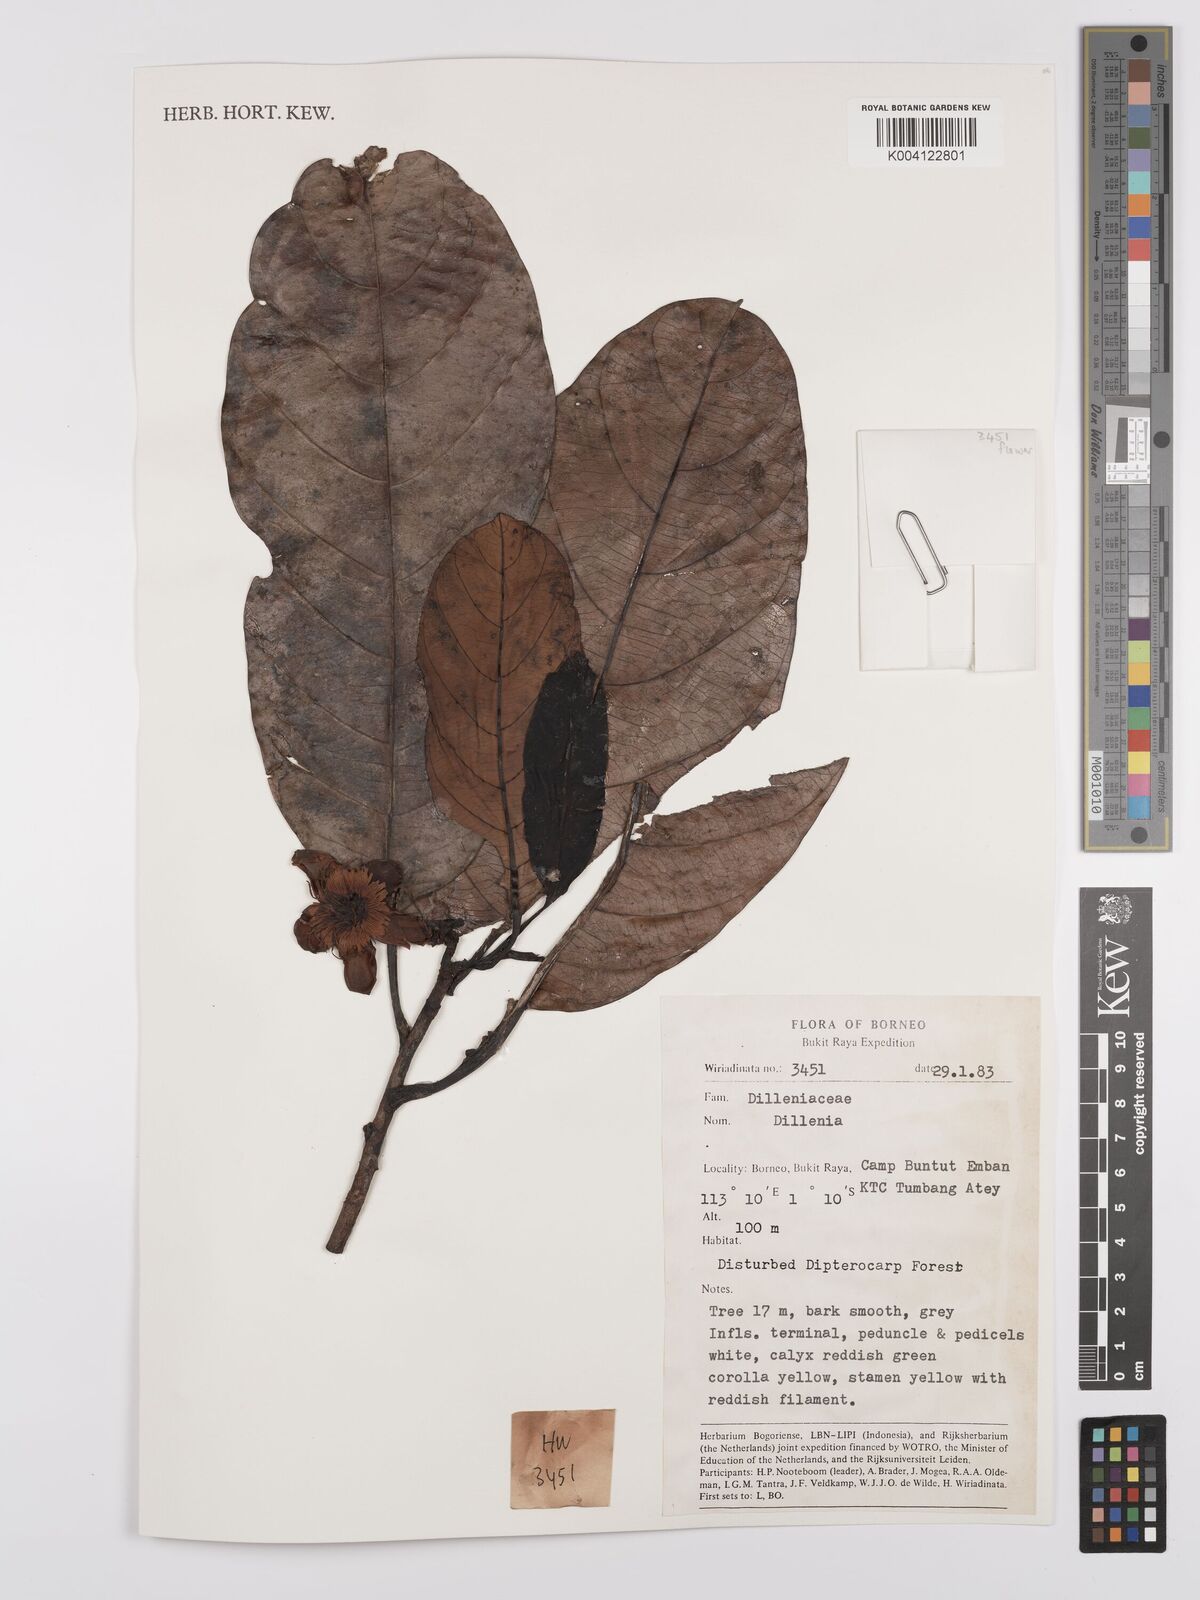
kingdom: Plantae
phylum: Tracheophyta
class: Magnoliopsida
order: Dilleniales
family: Dilleniaceae
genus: Dillenia
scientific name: Dillenia
